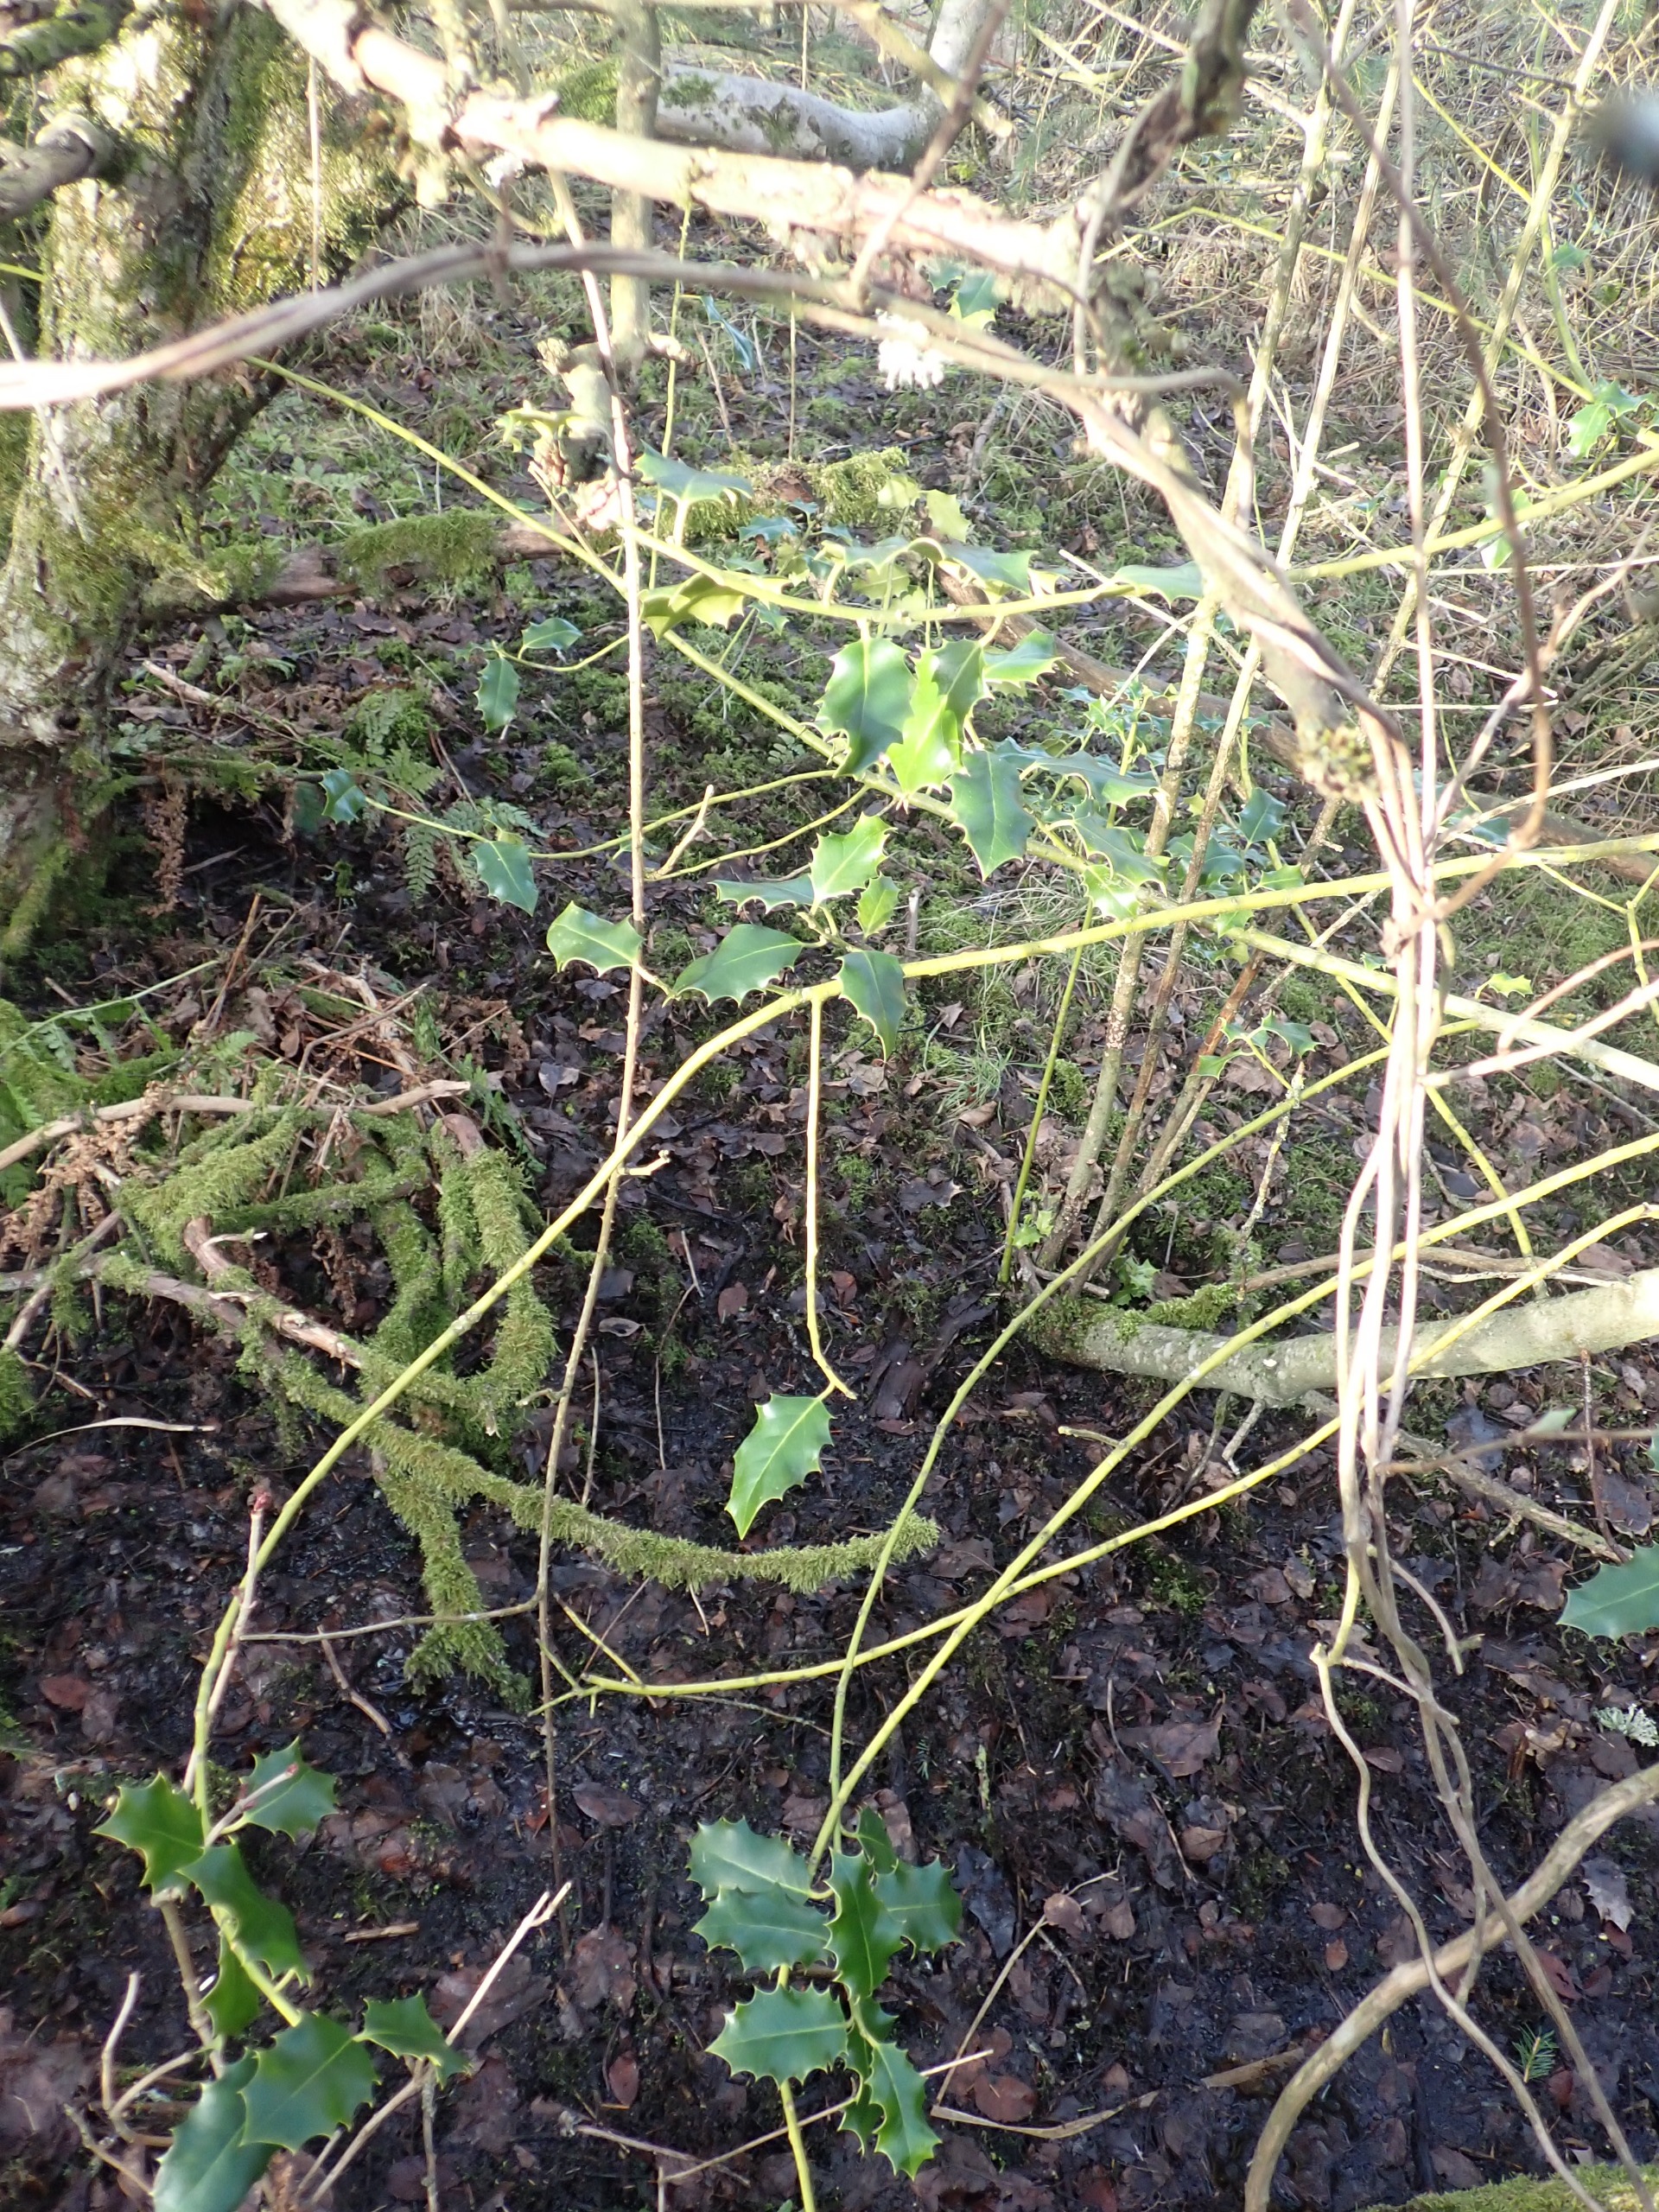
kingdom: Plantae
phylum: Tracheophyta
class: Magnoliopsida
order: Aquifoliales
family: Aquifoliaceae
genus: Ilex
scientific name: Ilex aquifolium
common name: Kristtorn
